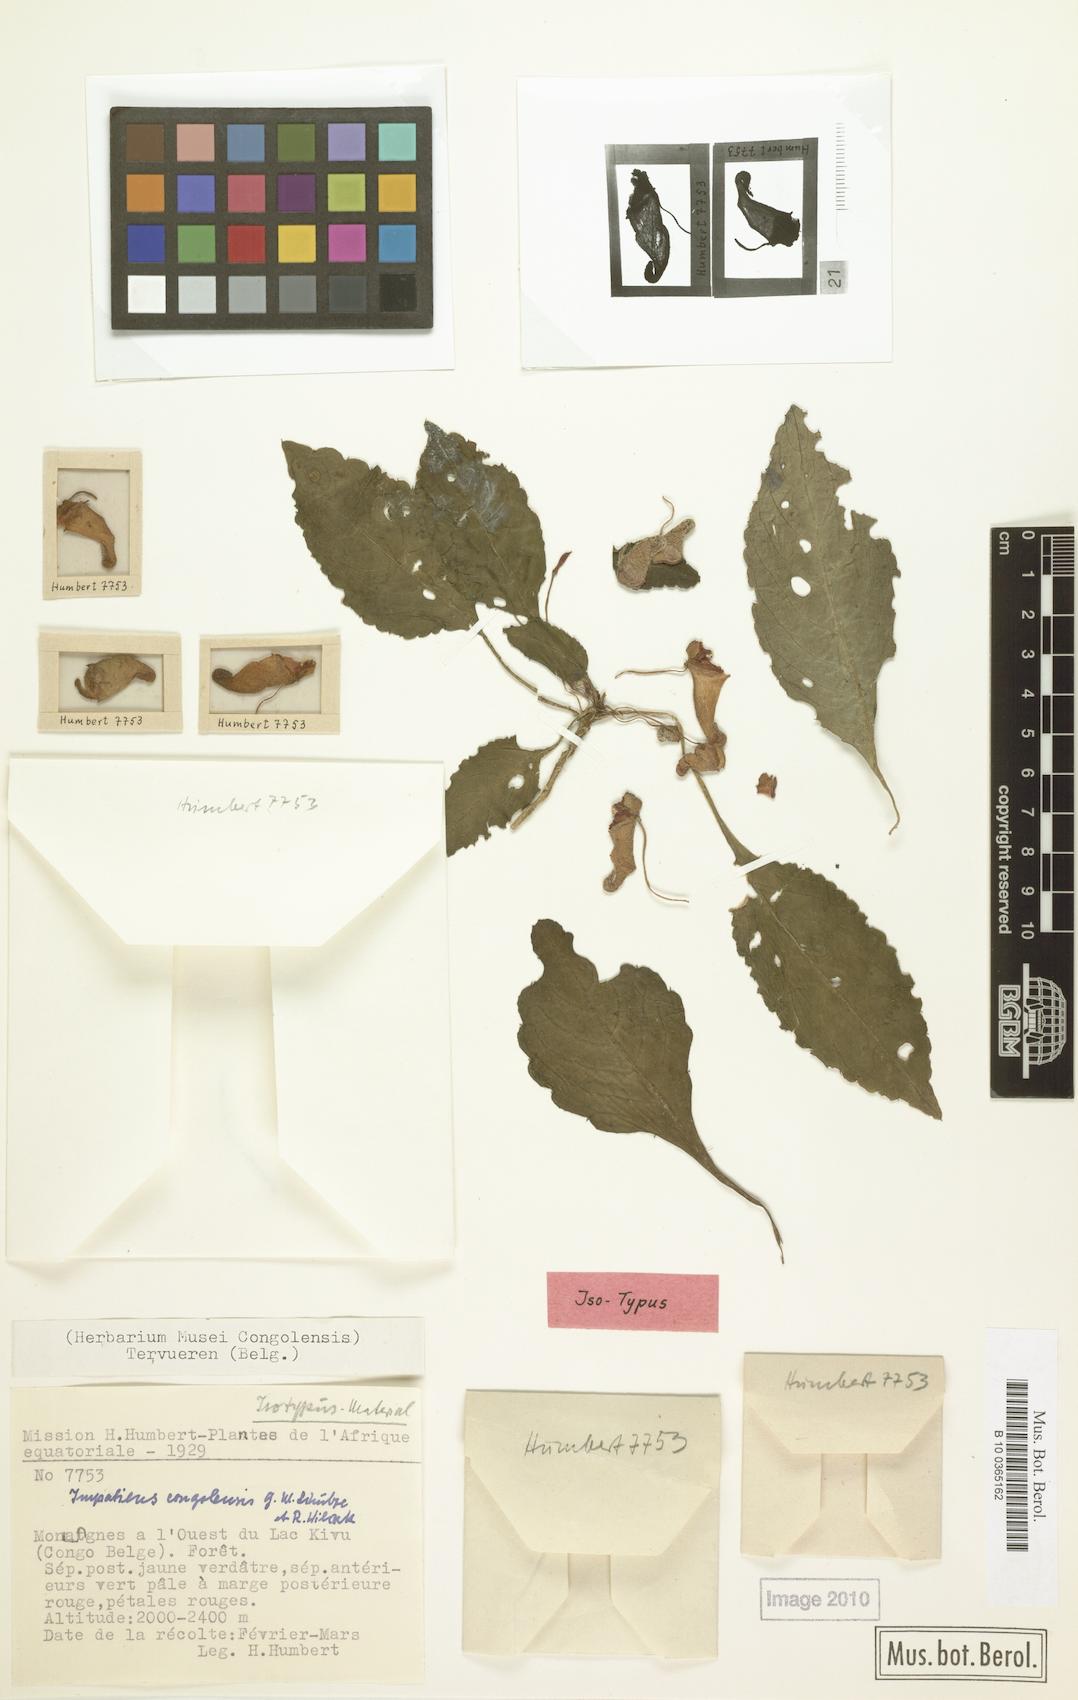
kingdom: Plantae
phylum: Tracheophyta
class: Magnoliopsida
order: Ericales
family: Balsaminaceae
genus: Impatiens
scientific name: Impatiens congolensis
